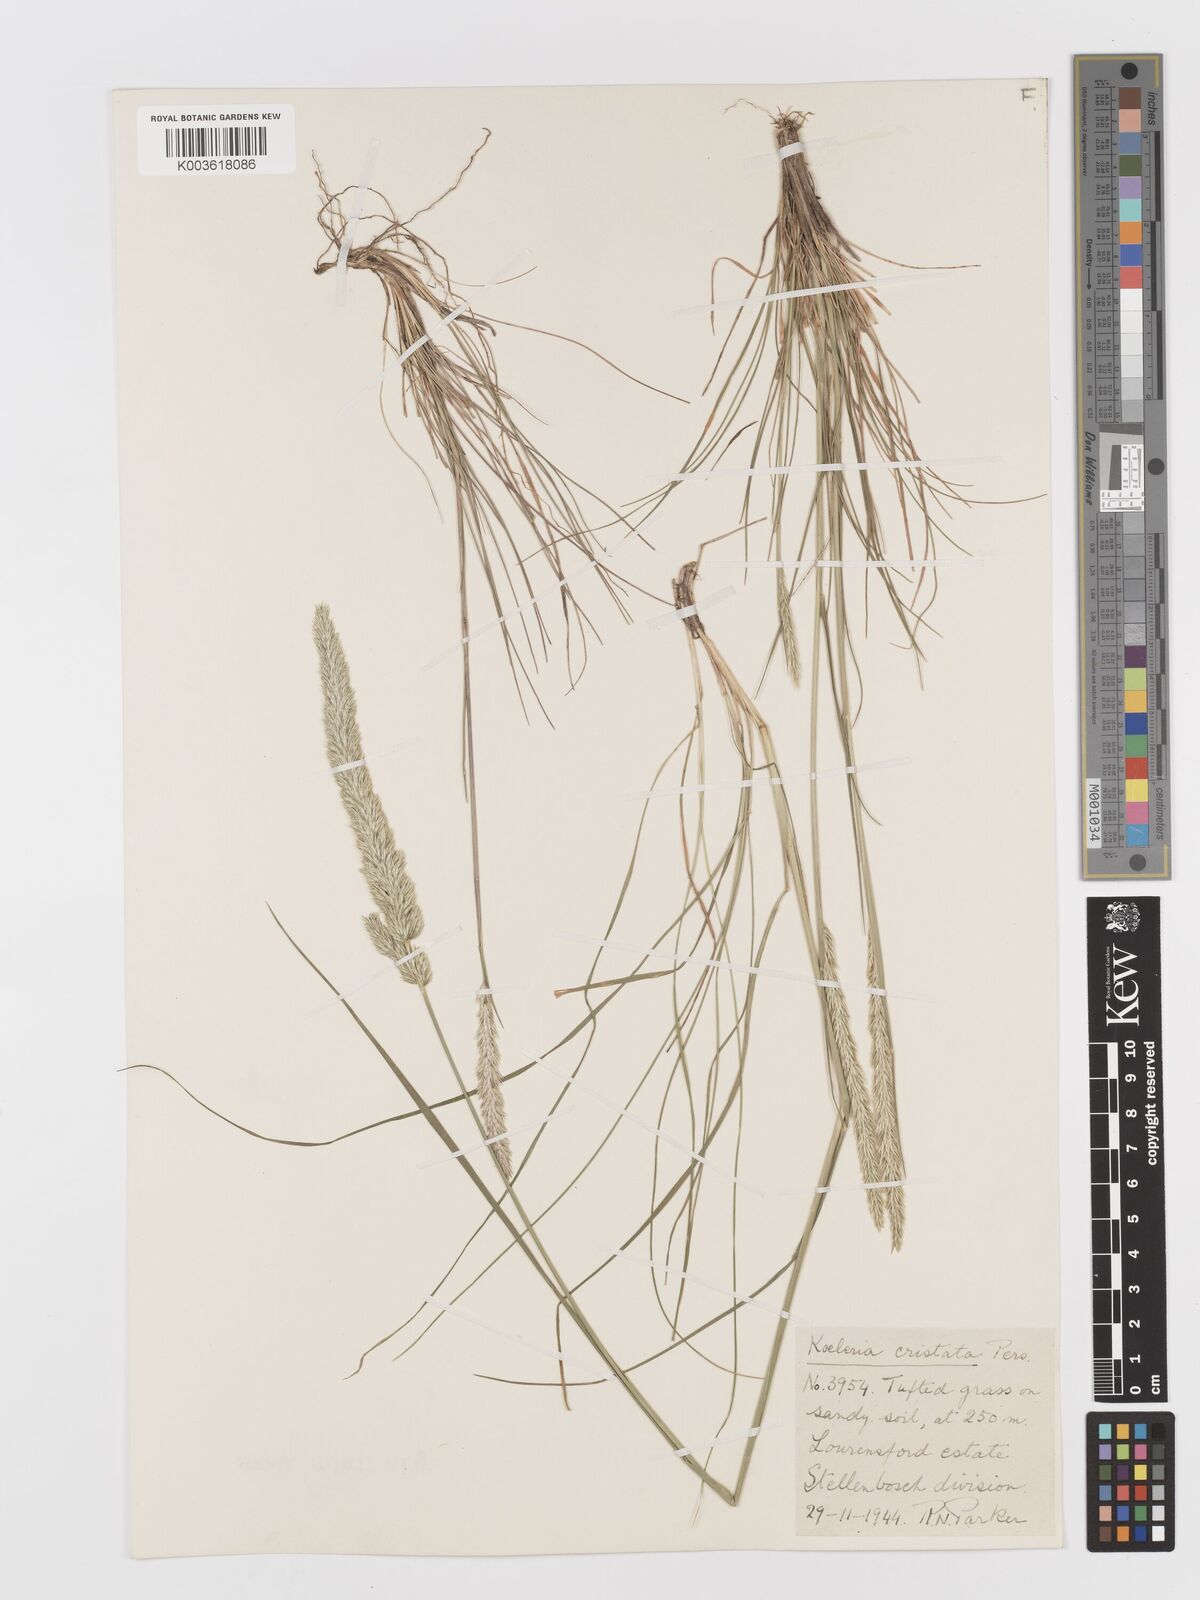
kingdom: Plantae
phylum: Tracheophyta
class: Liliopsida
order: Poales
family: Poaceae
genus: Koeleria
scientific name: Koeleria capensis
